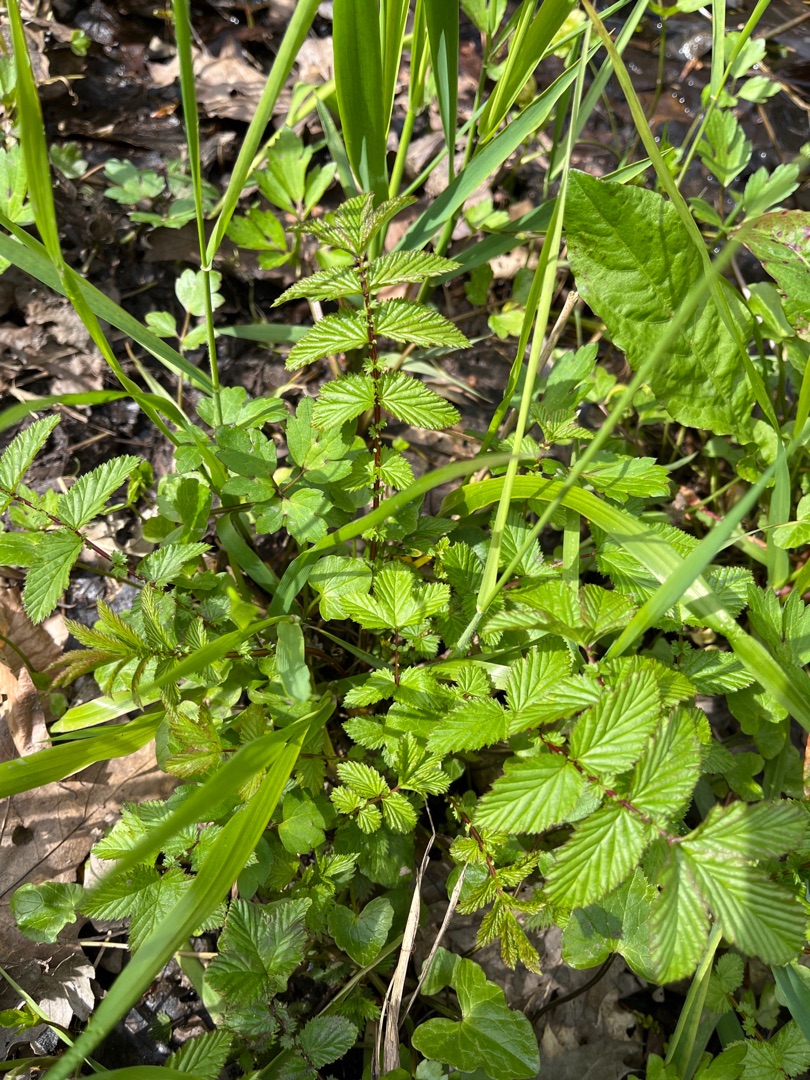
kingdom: Plantae
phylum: Tracheophyta
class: Magnoliopsida
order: Rosales
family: Rosaceae
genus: Filipendula
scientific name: Filipendula ulmaria
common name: Almindelig mjødurt
